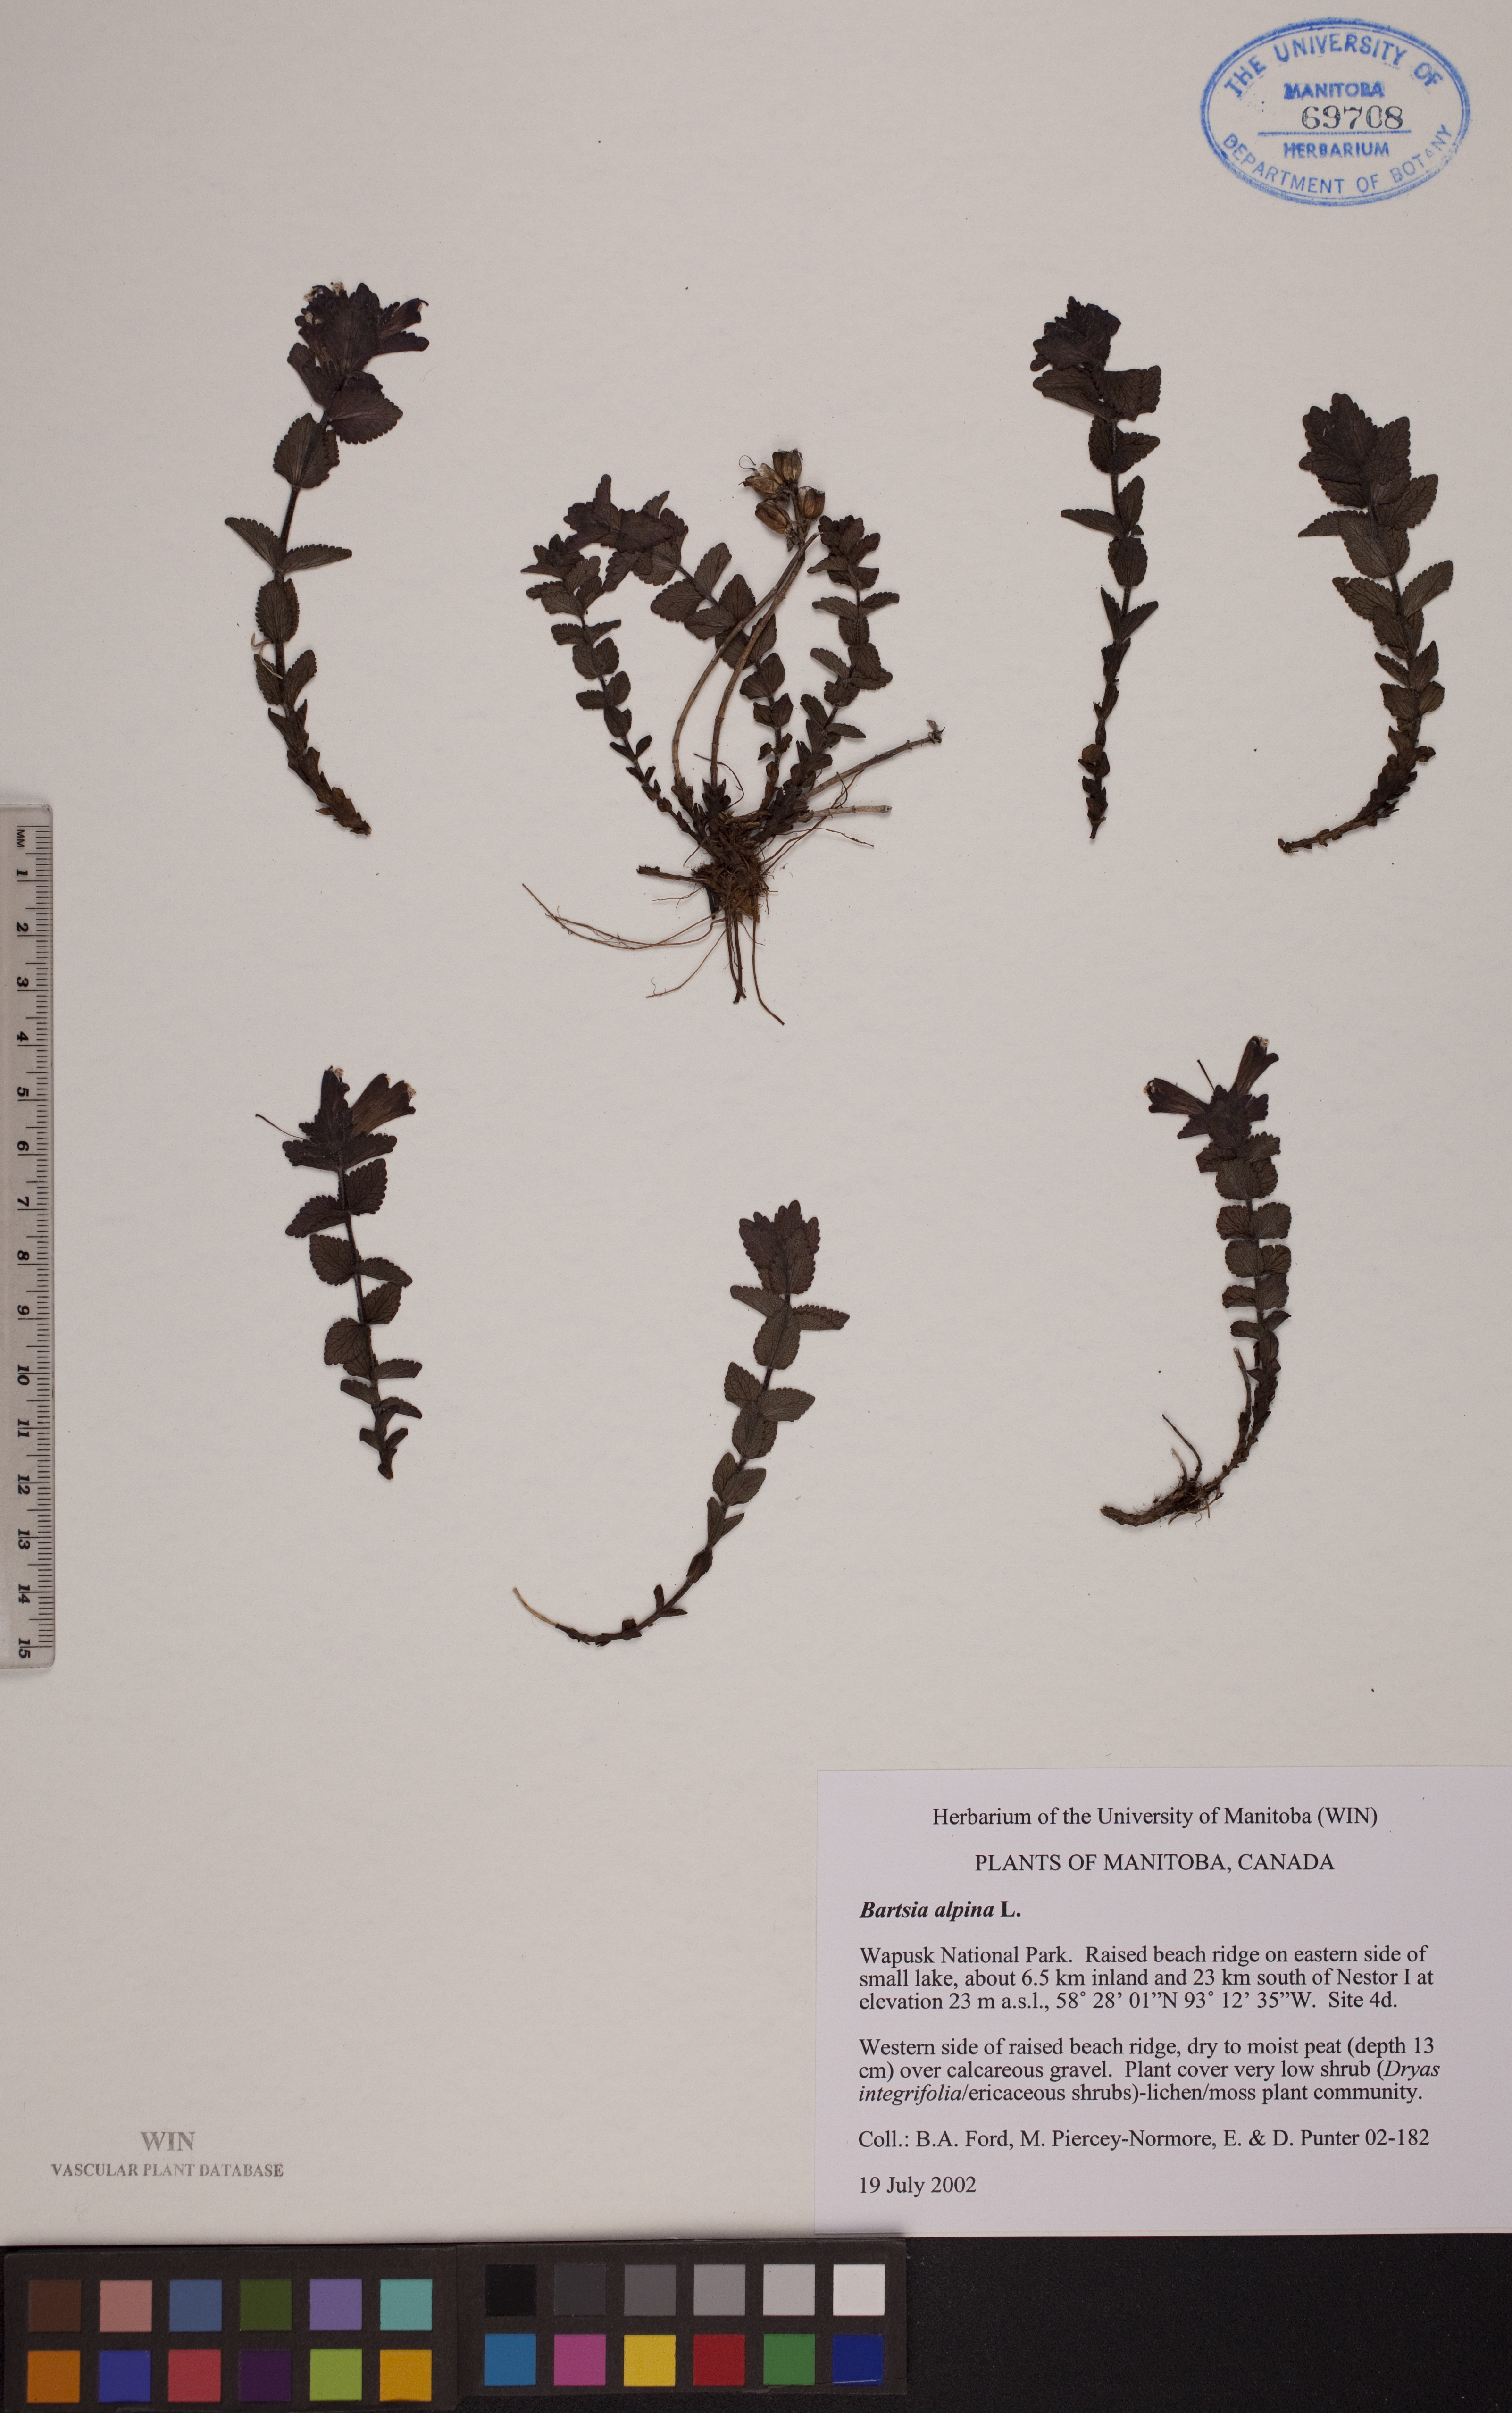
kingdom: Plantae
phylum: Tracheophyta
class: Magnoliopsida
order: Lamiales
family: Orobanchaceae
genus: Bartsia
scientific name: Bartsia alpina
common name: Alpine bartsia
